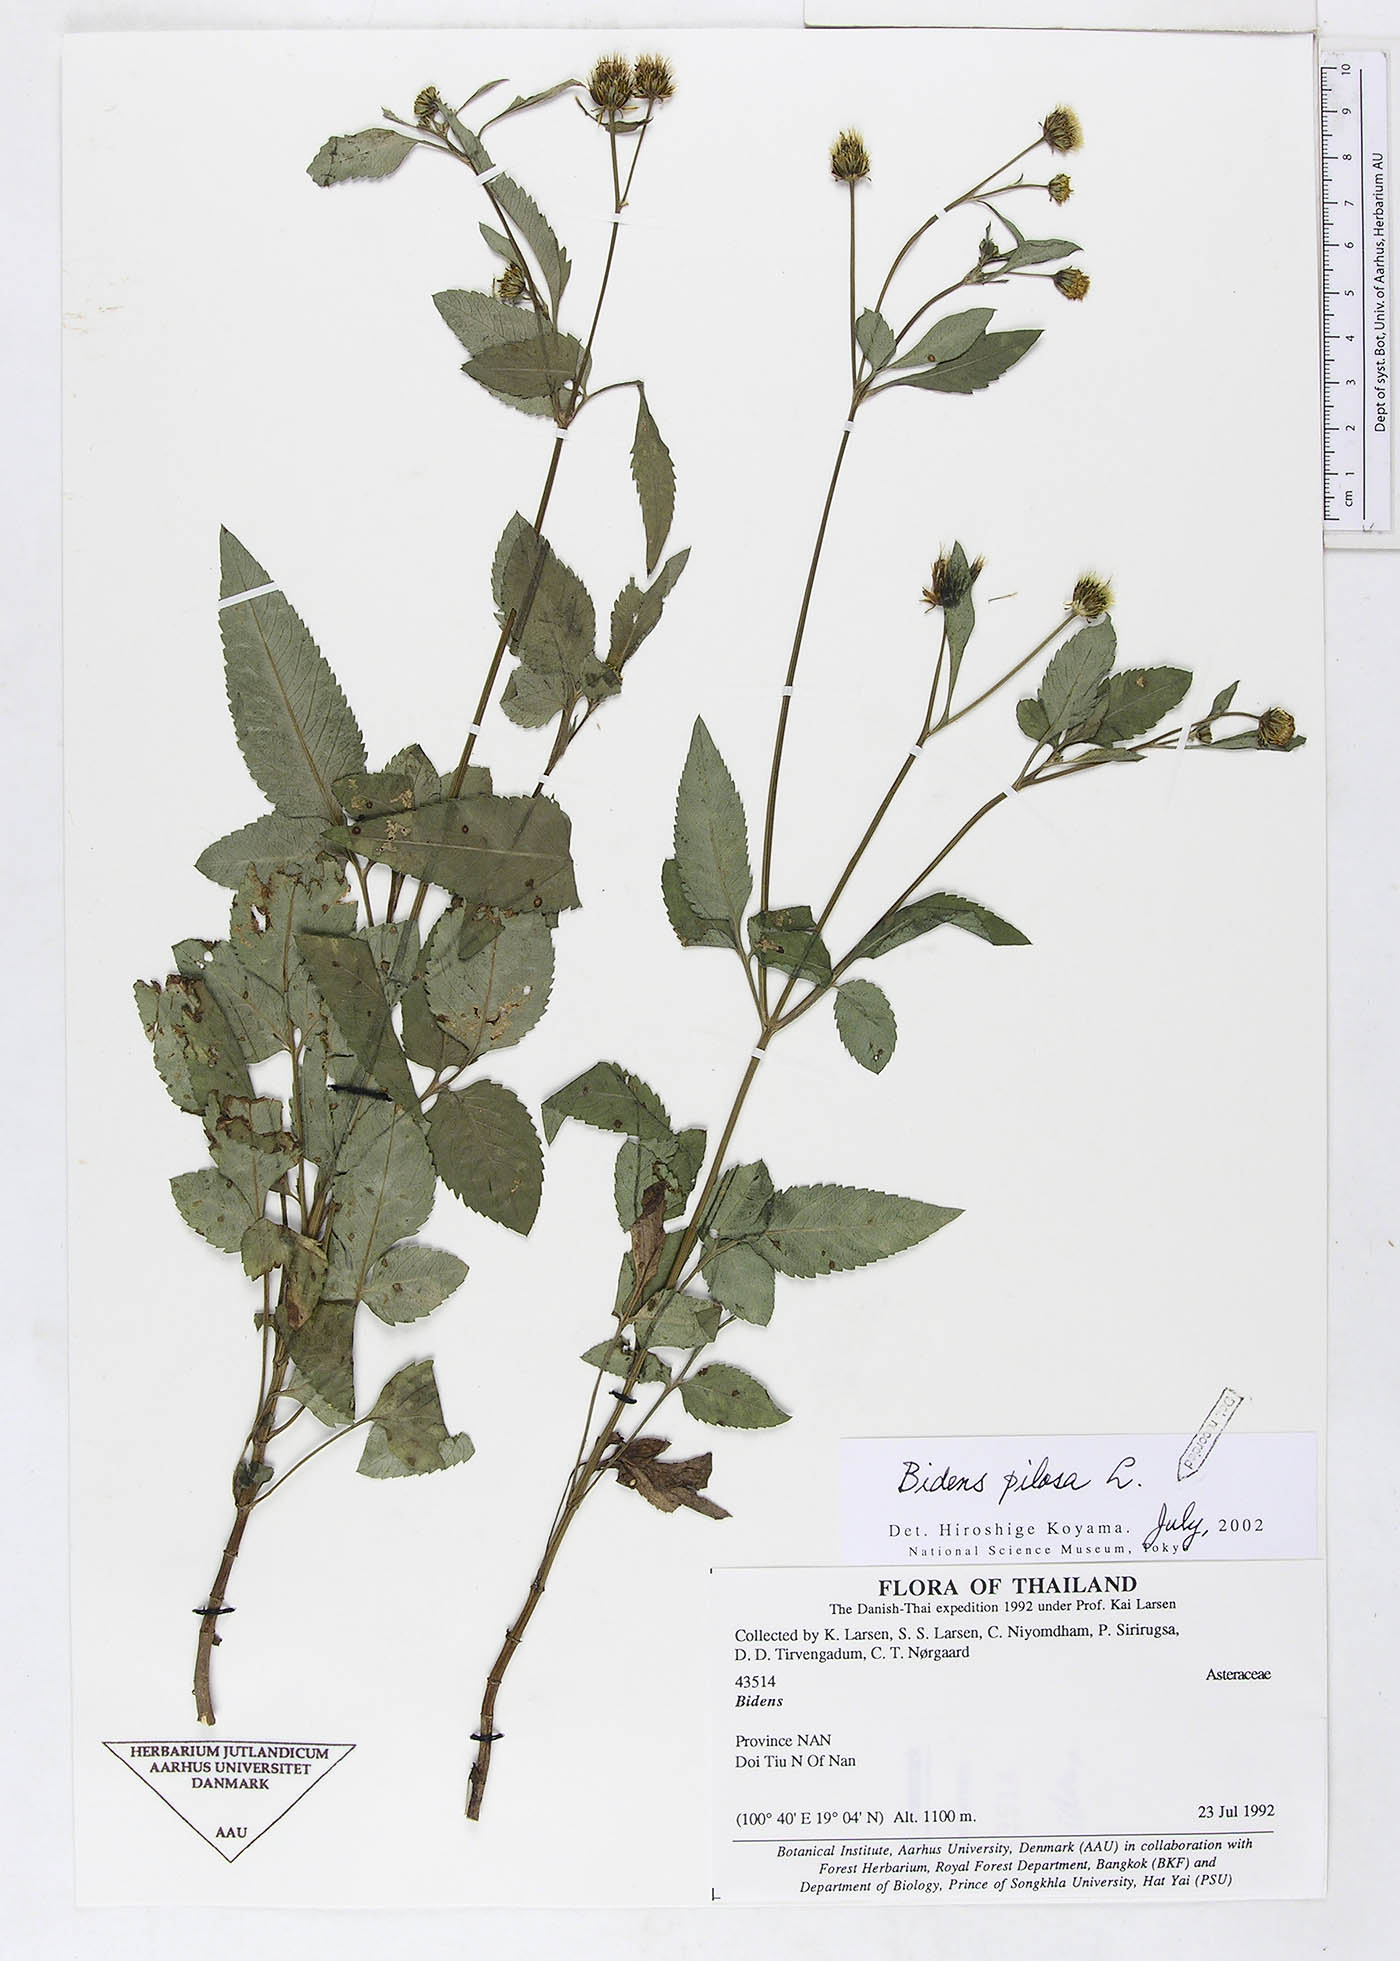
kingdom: Plantae
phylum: Tracheophyta
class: Magnoliopsida
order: Asterales
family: Asteraceae
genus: Bidens
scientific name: Bidens pilosa
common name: Black-jack
